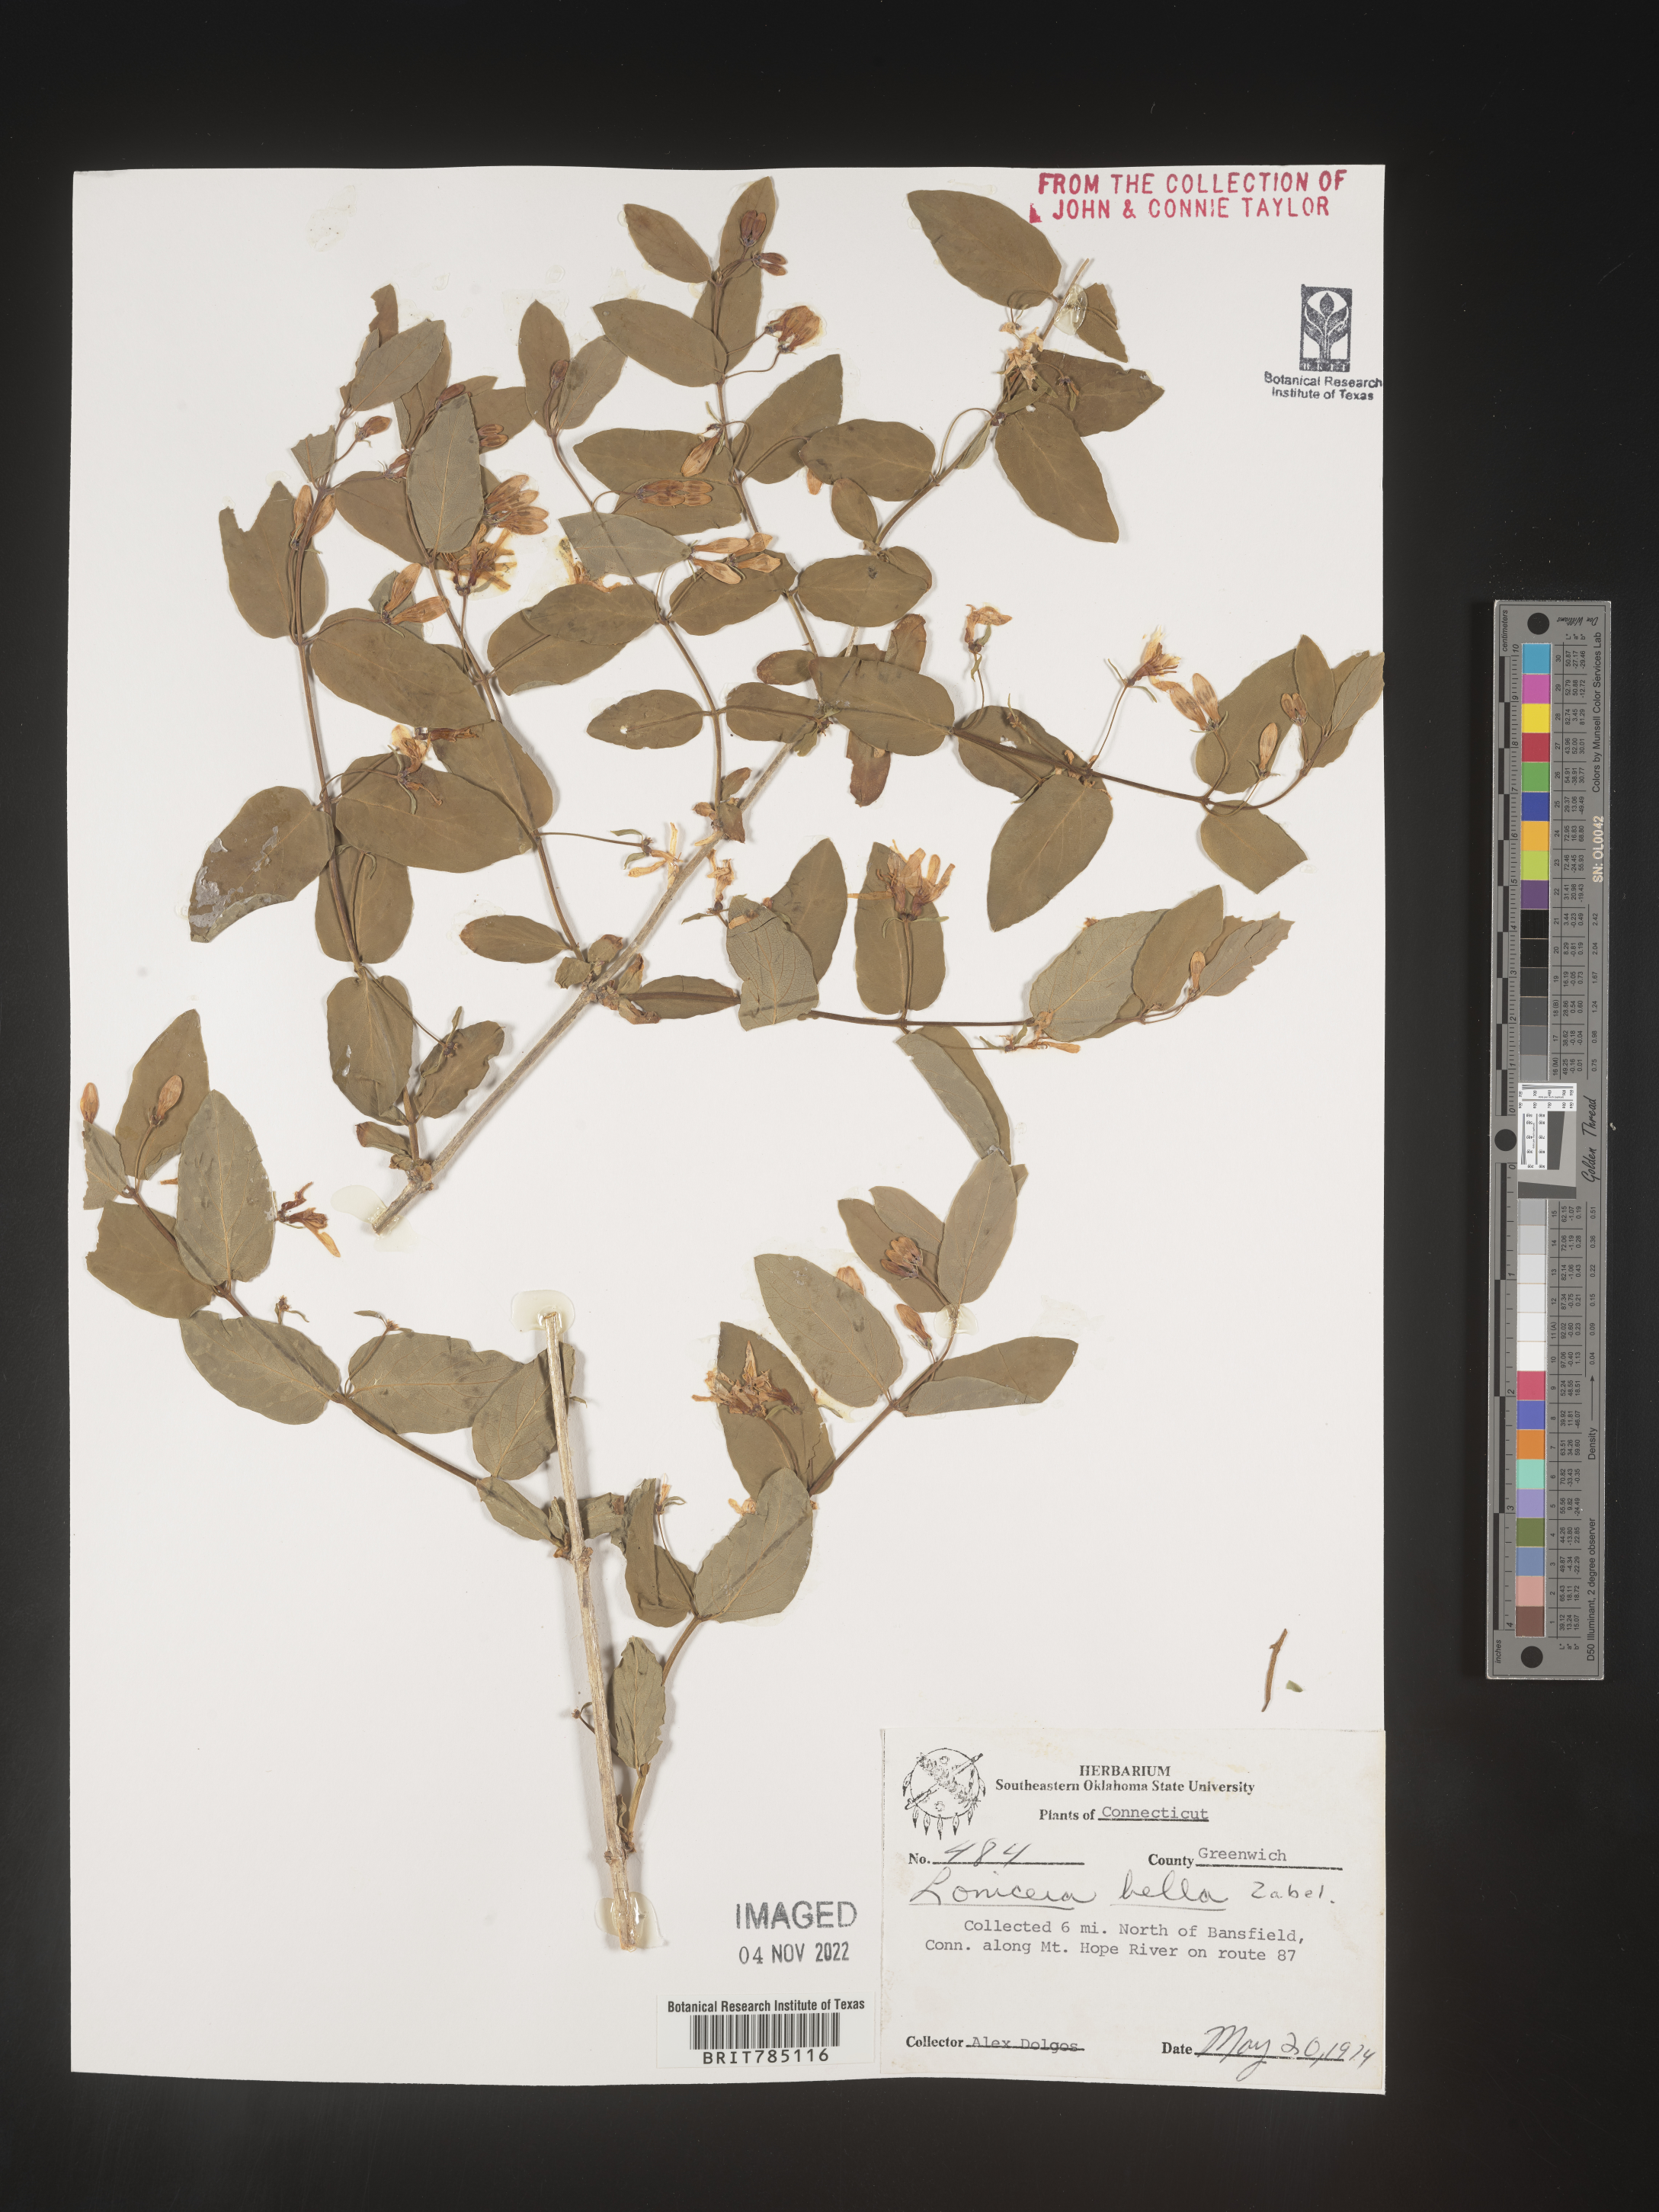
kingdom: Plantae
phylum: Tracheophyta
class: Magnoliopsida
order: Dipsacales
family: Caprifoliaceae
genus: Lonicera
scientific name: Lonicera bella
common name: Bell's honeysuckle
